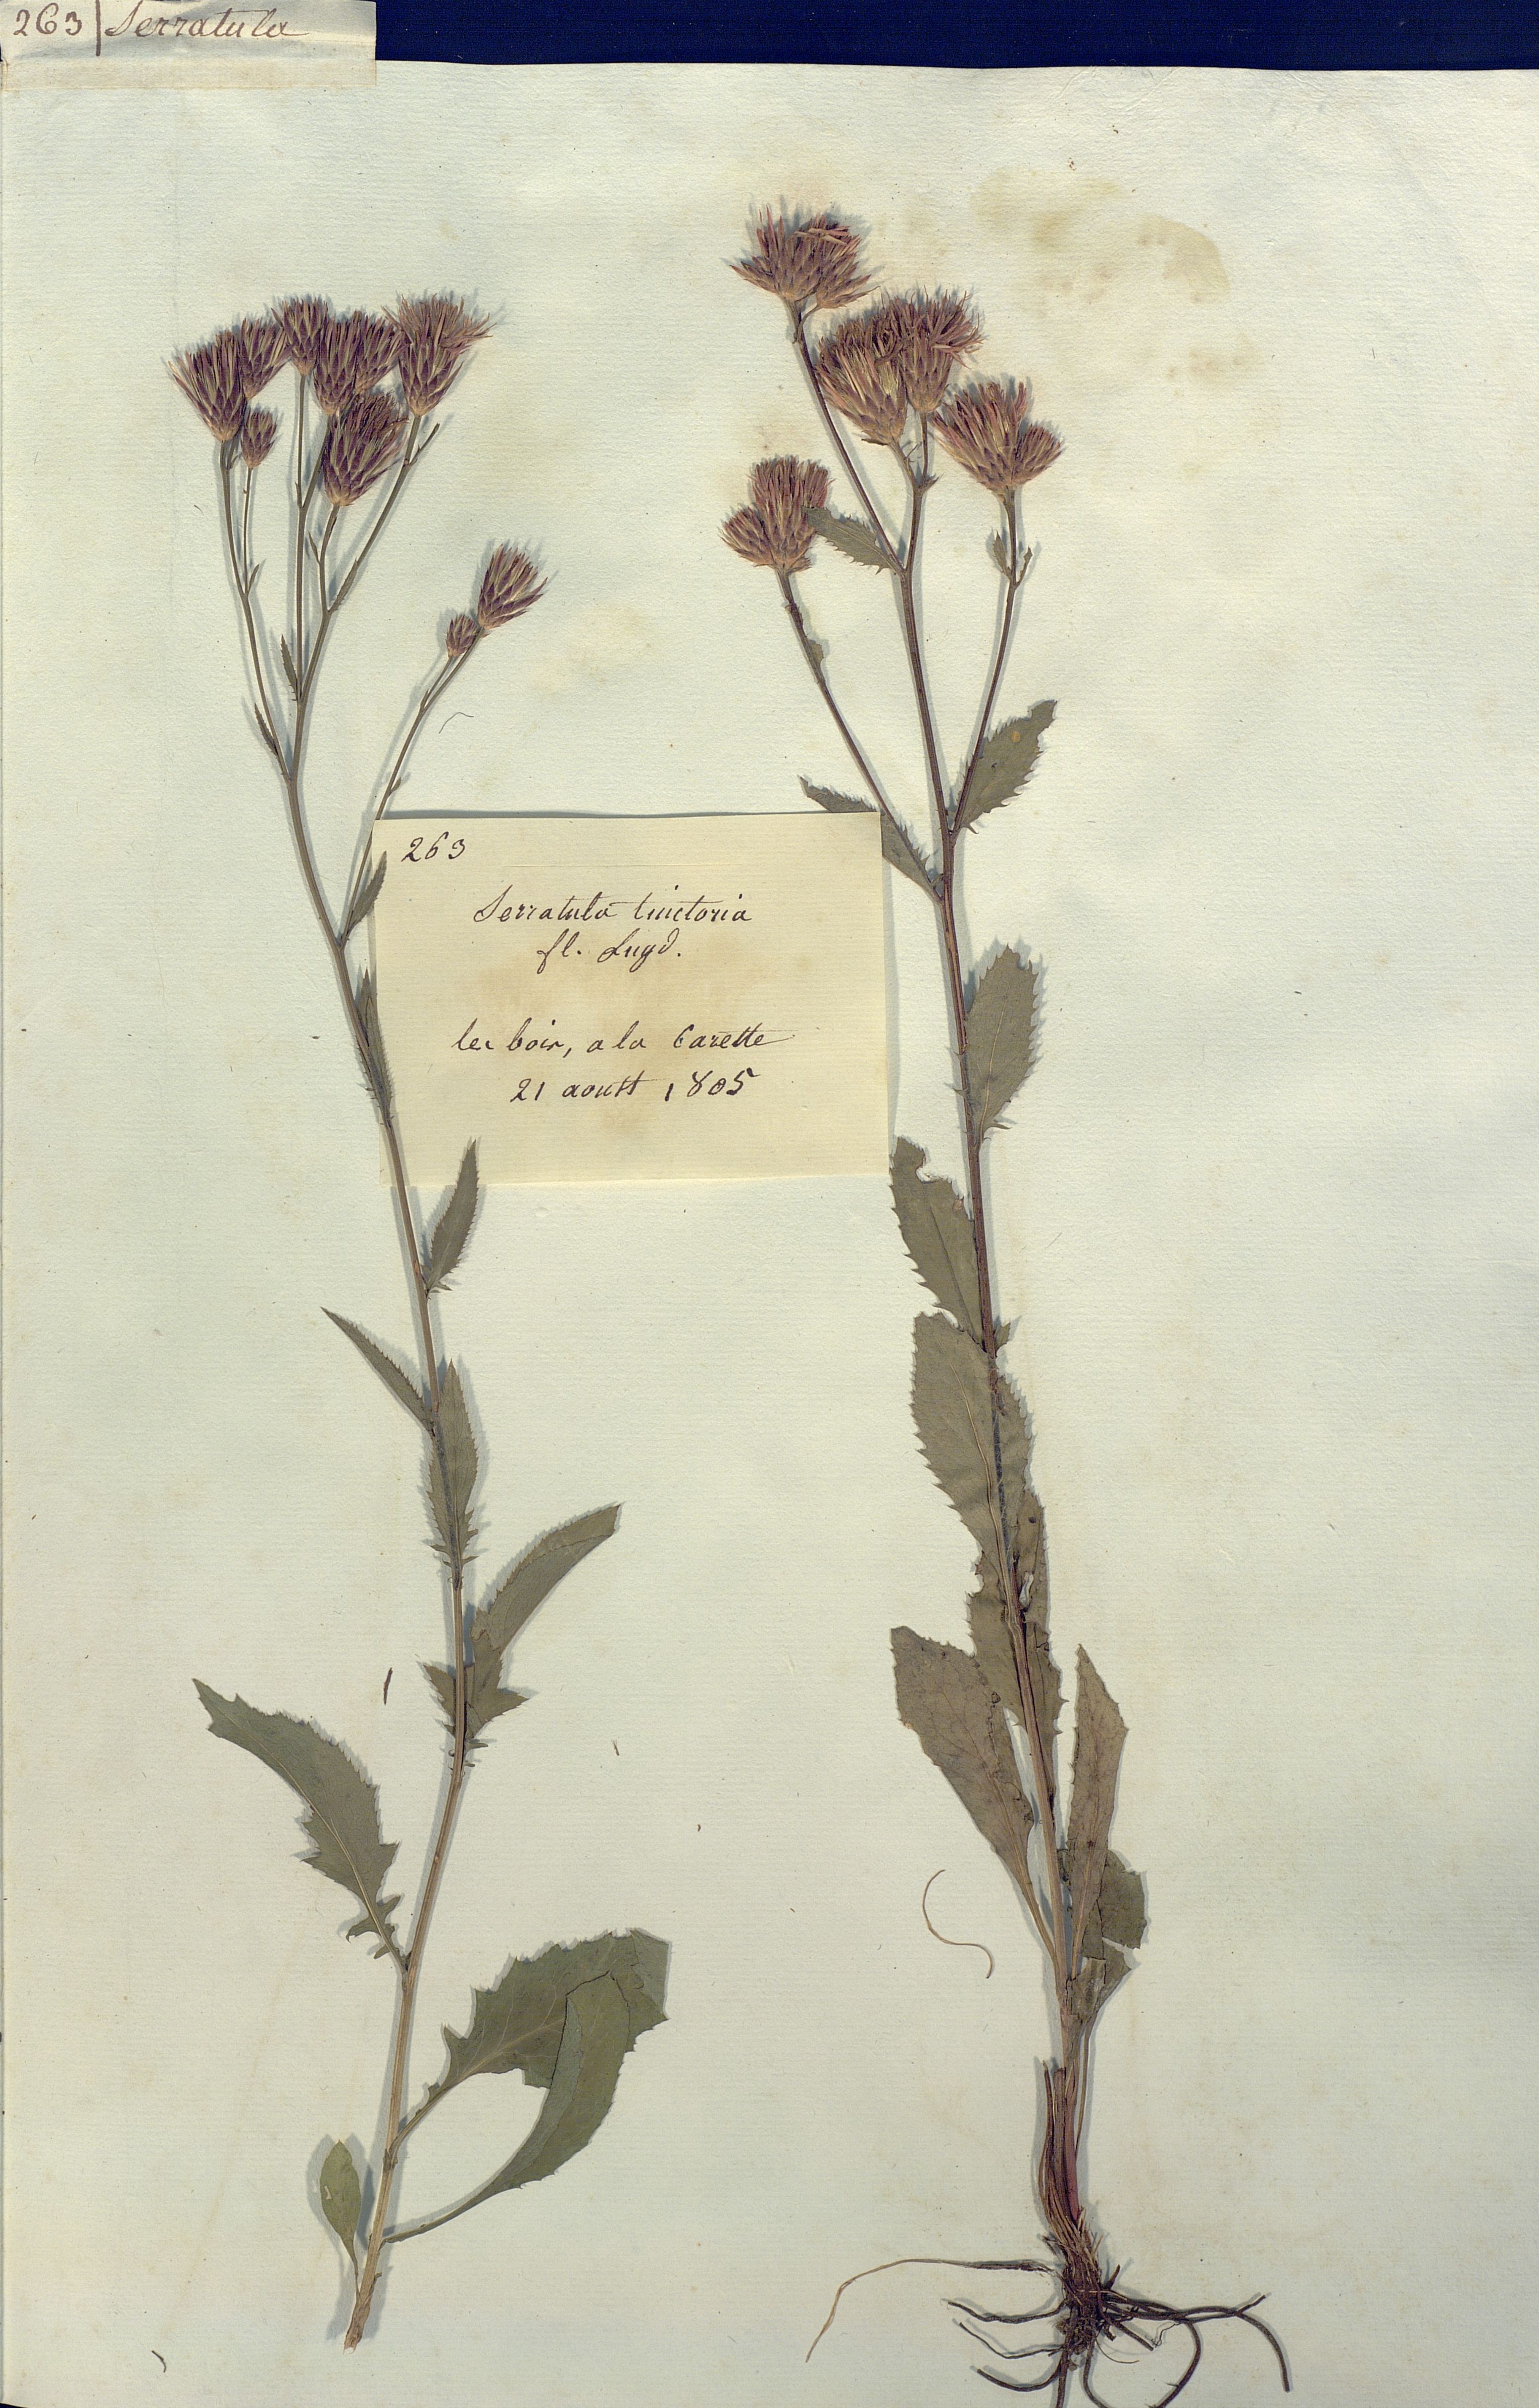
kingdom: Plantae
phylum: Tracheophyta
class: Magnoliopsida
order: Asterales
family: Asteraceae
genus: Serratula
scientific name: Serratula tinctoria
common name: Saw-wort
